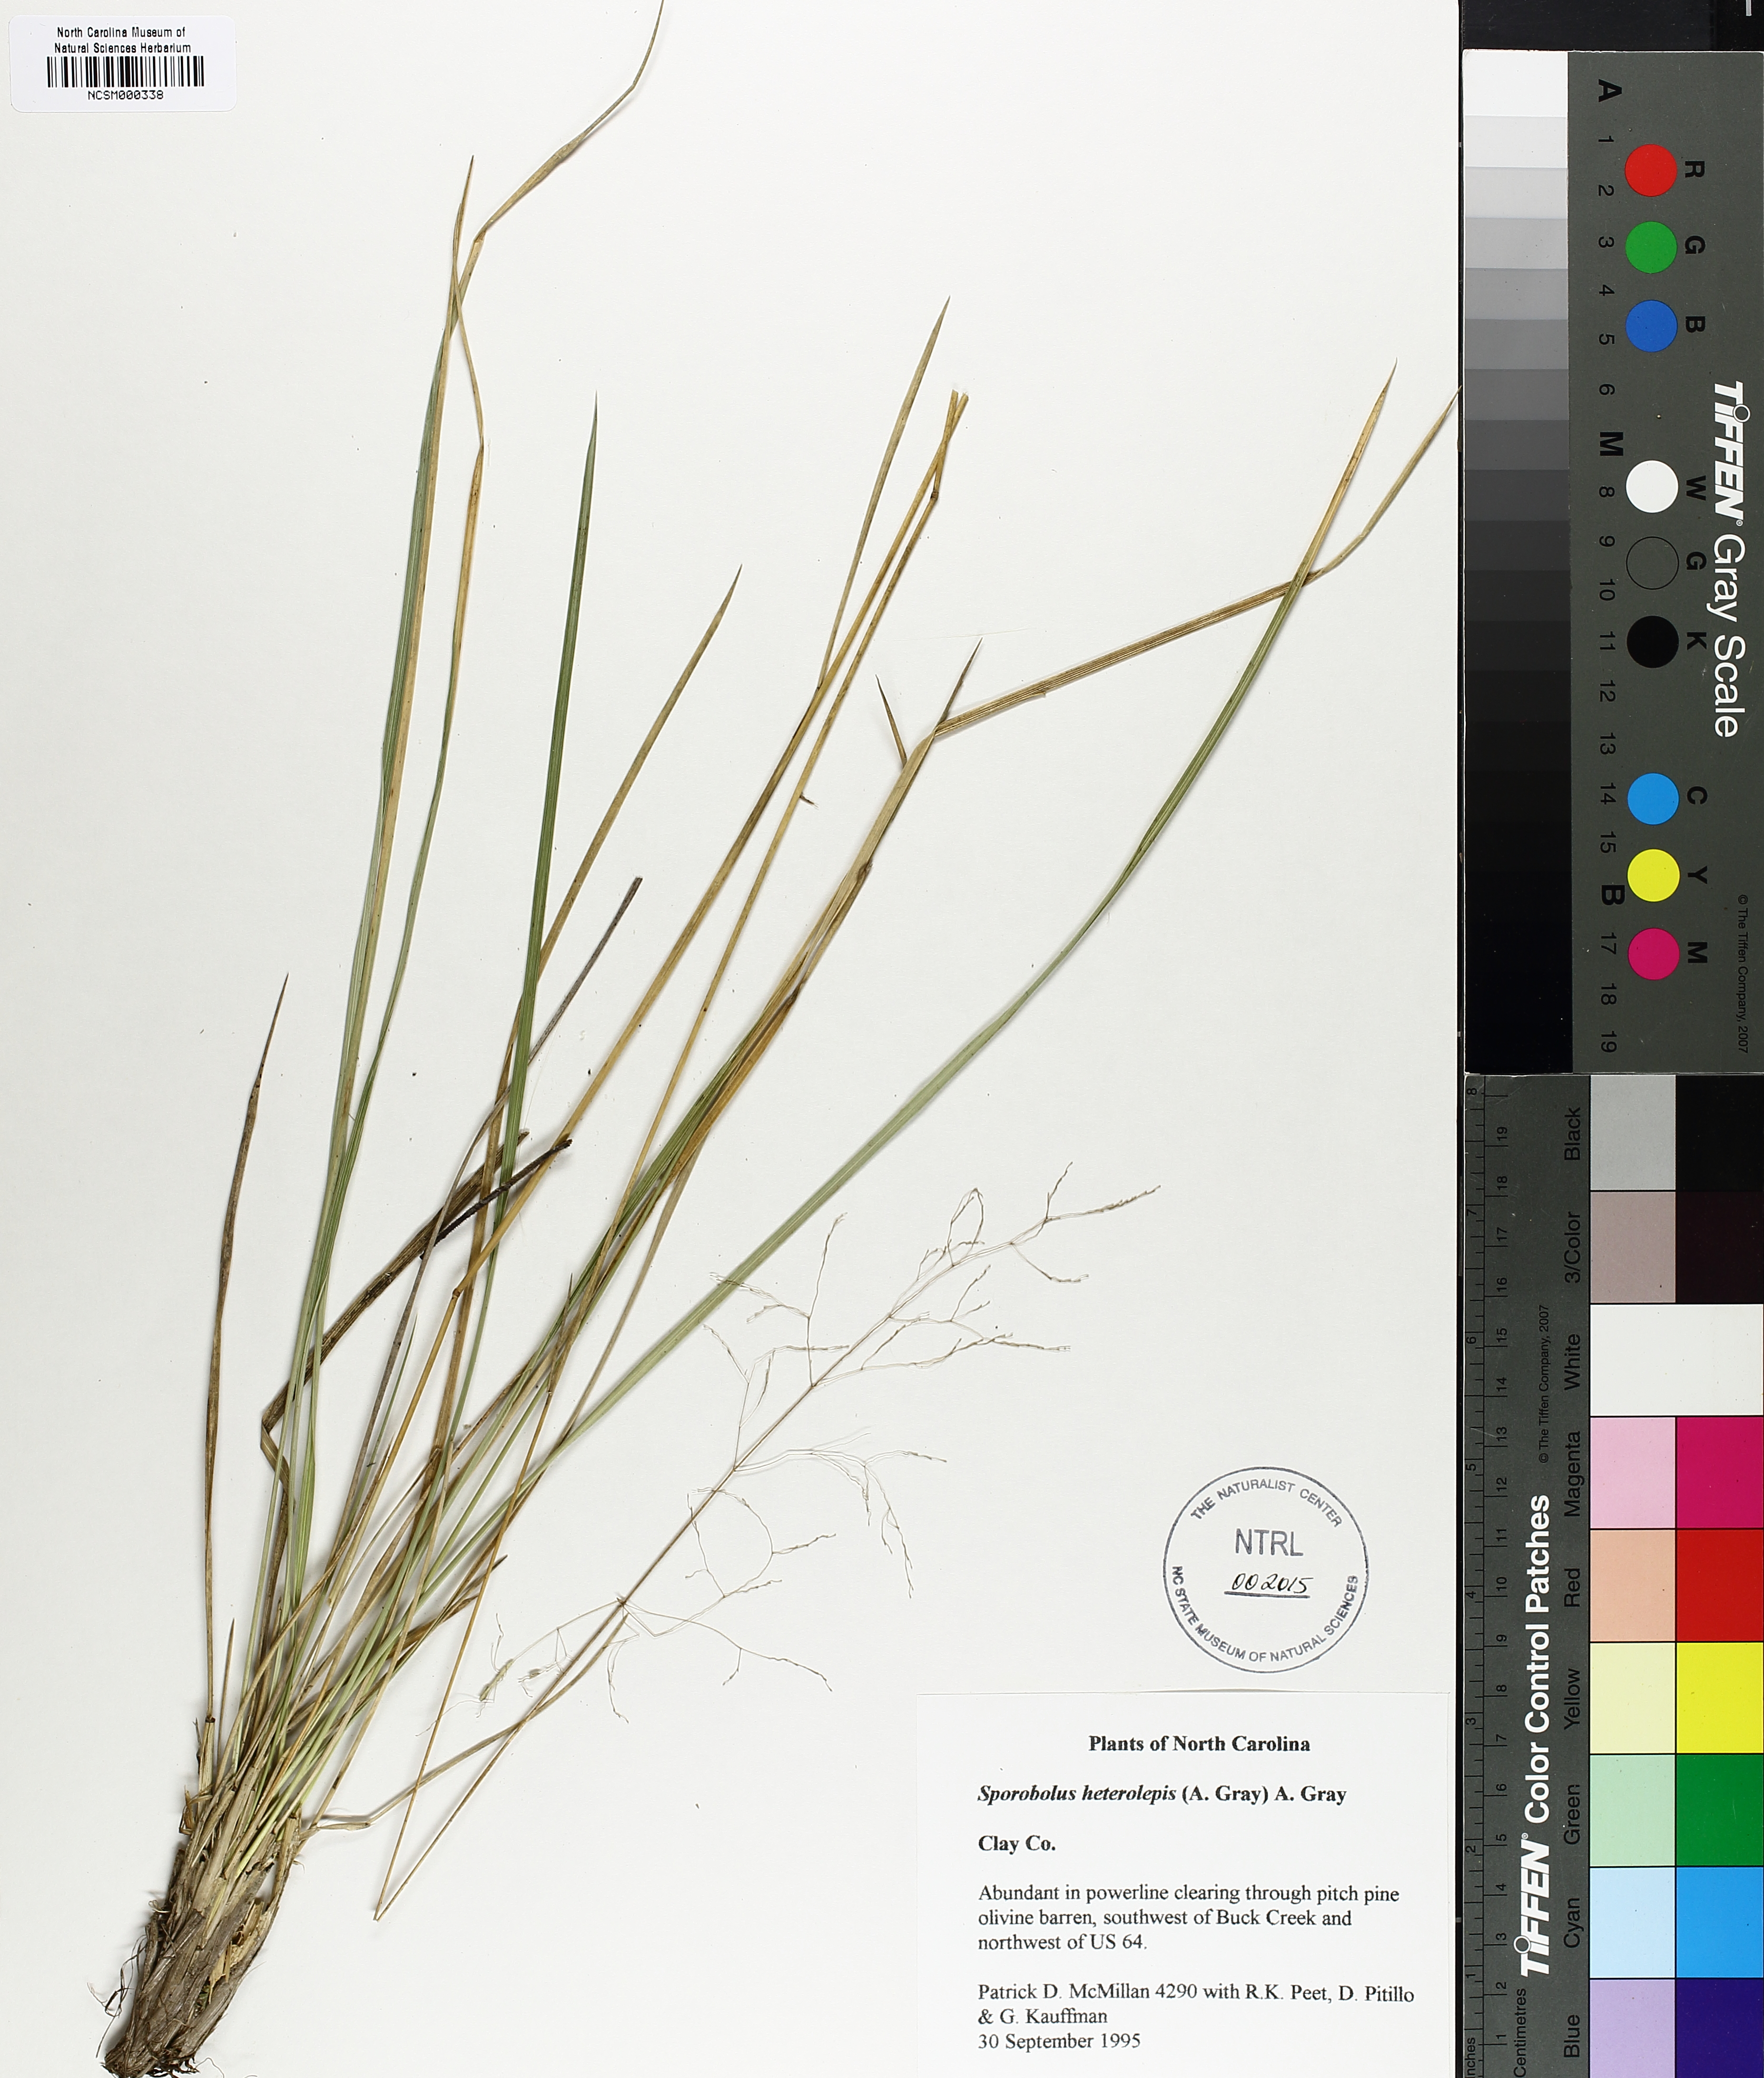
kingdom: Plantae
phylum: Tracheophyta
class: Liliopsida
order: Poales
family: Poaceae
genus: Sporobolus
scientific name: Sporobolus heterolepis
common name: Prairie dropseed
